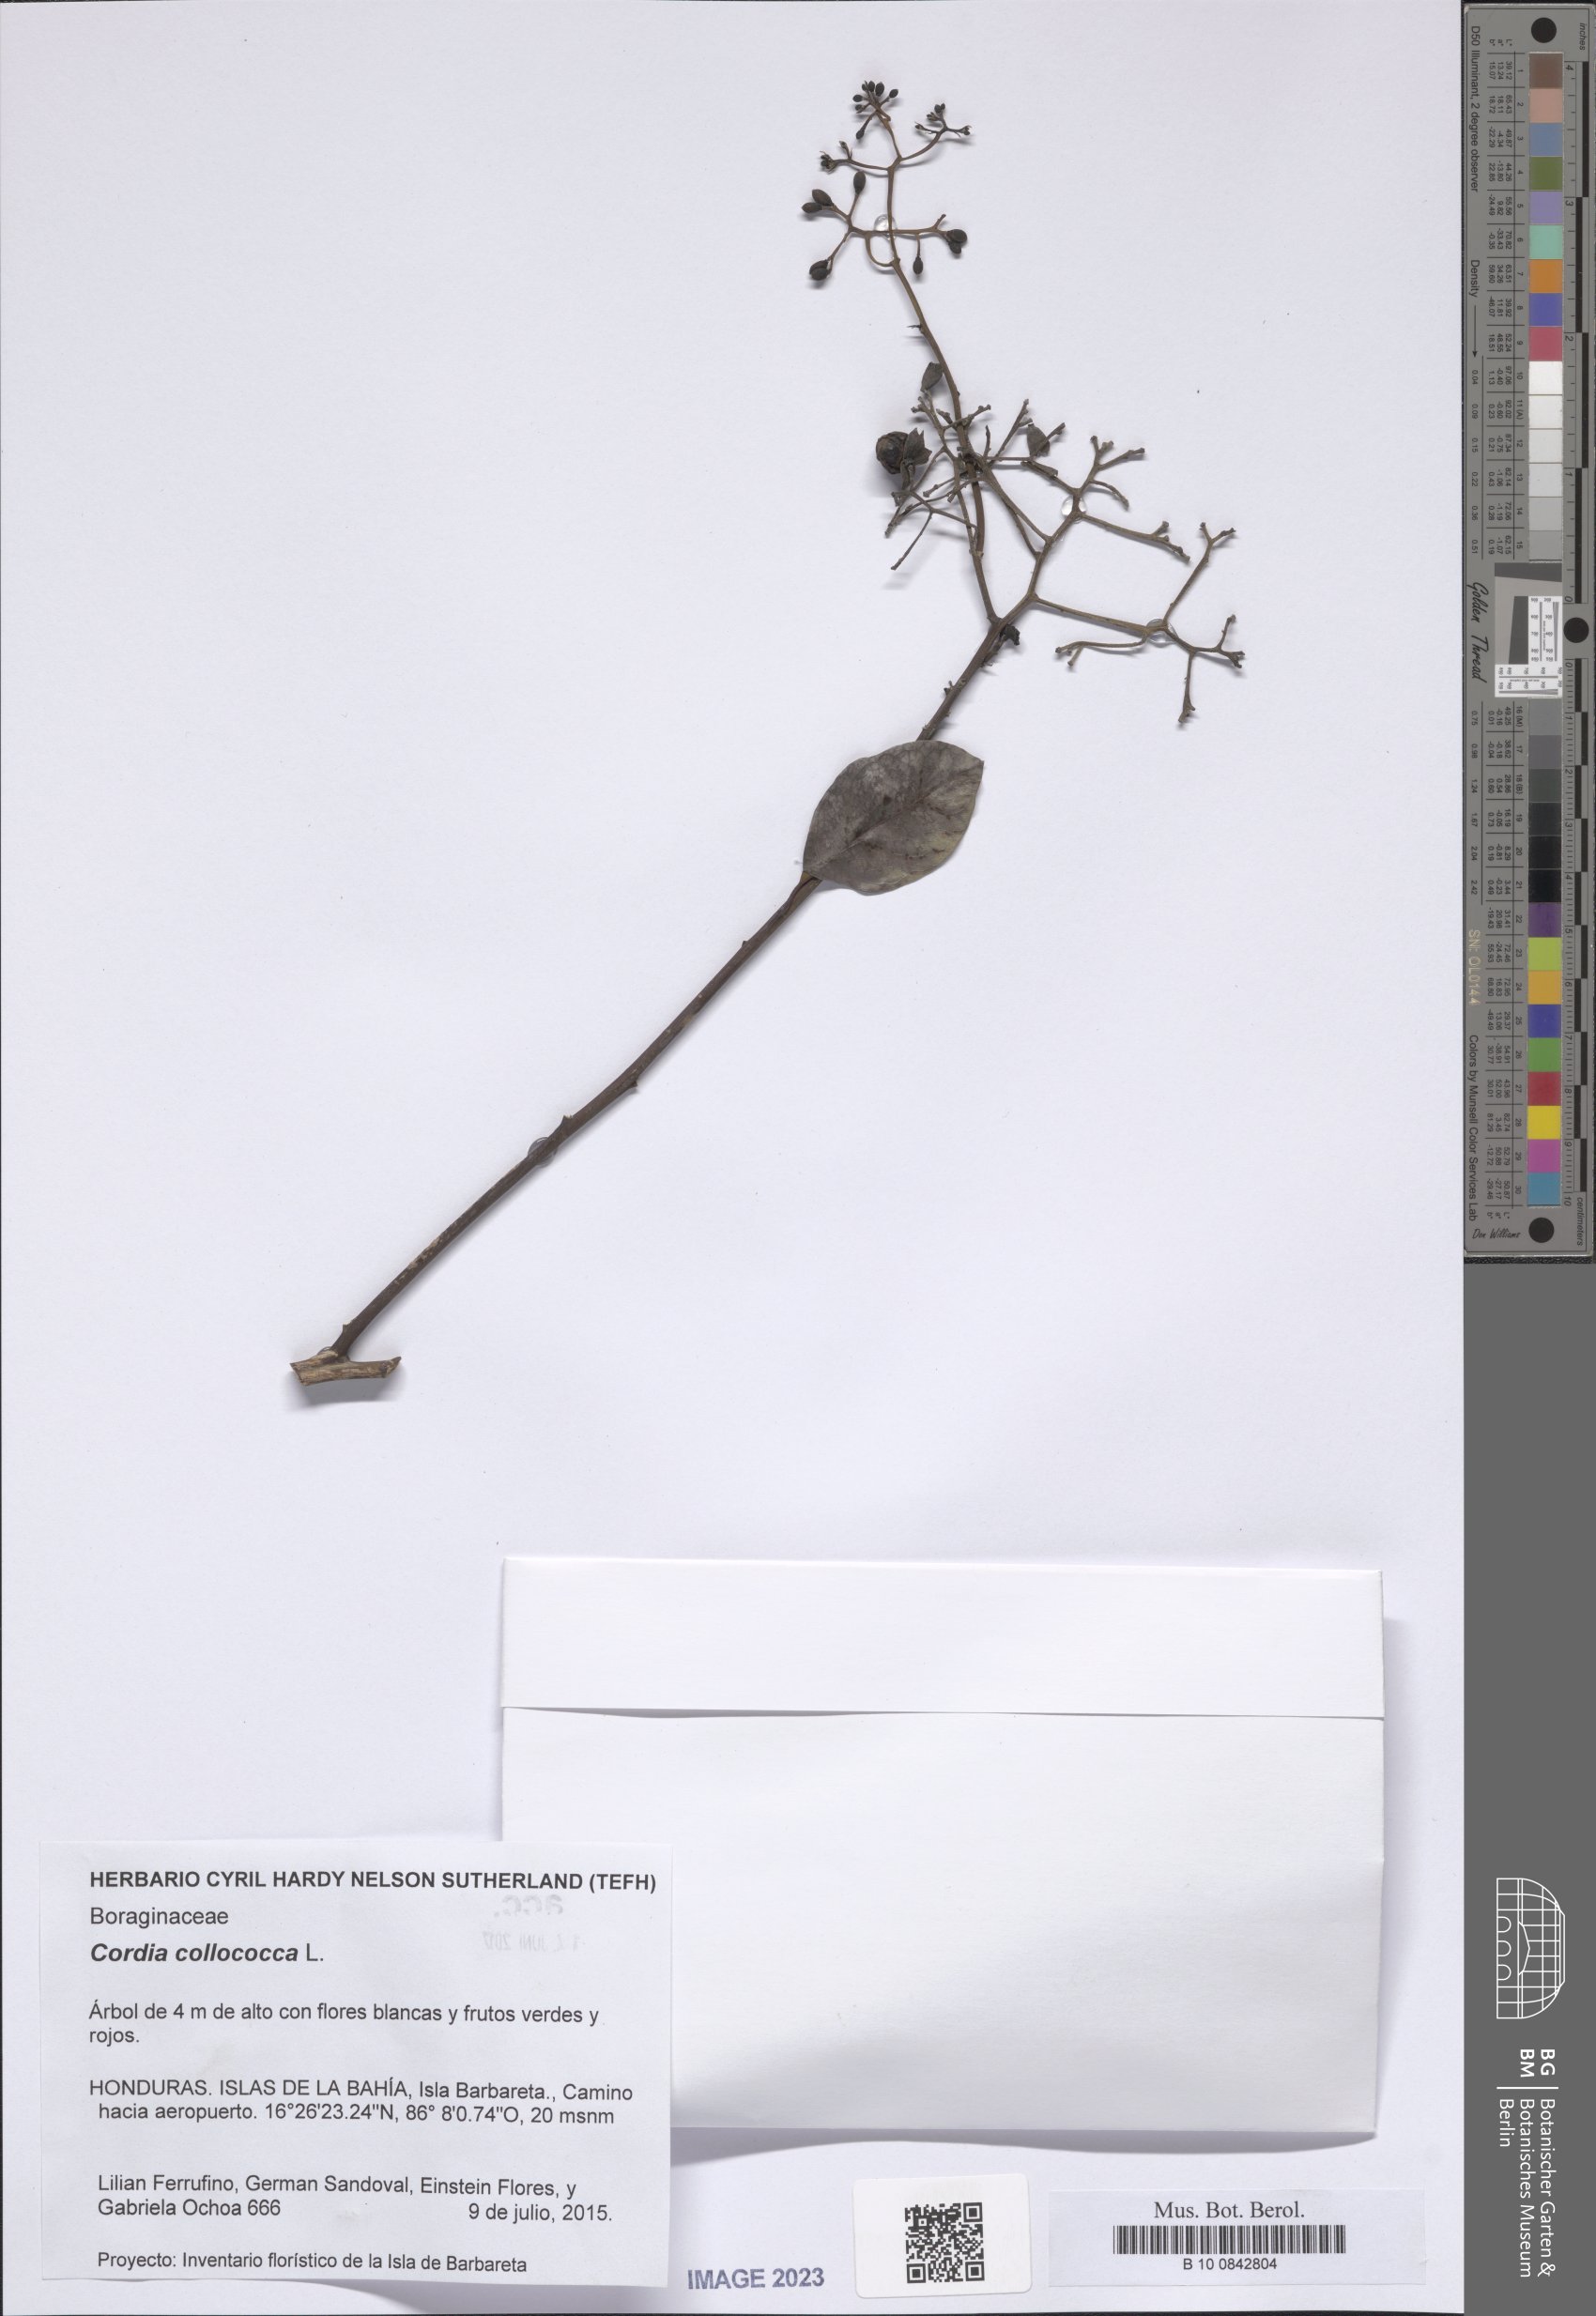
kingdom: Plantae
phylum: Tracheophyta
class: Magnoliopsida
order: Boraginales
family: Cordiaceae
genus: Cordia
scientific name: Cordia collococca
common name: Clammy cherry
